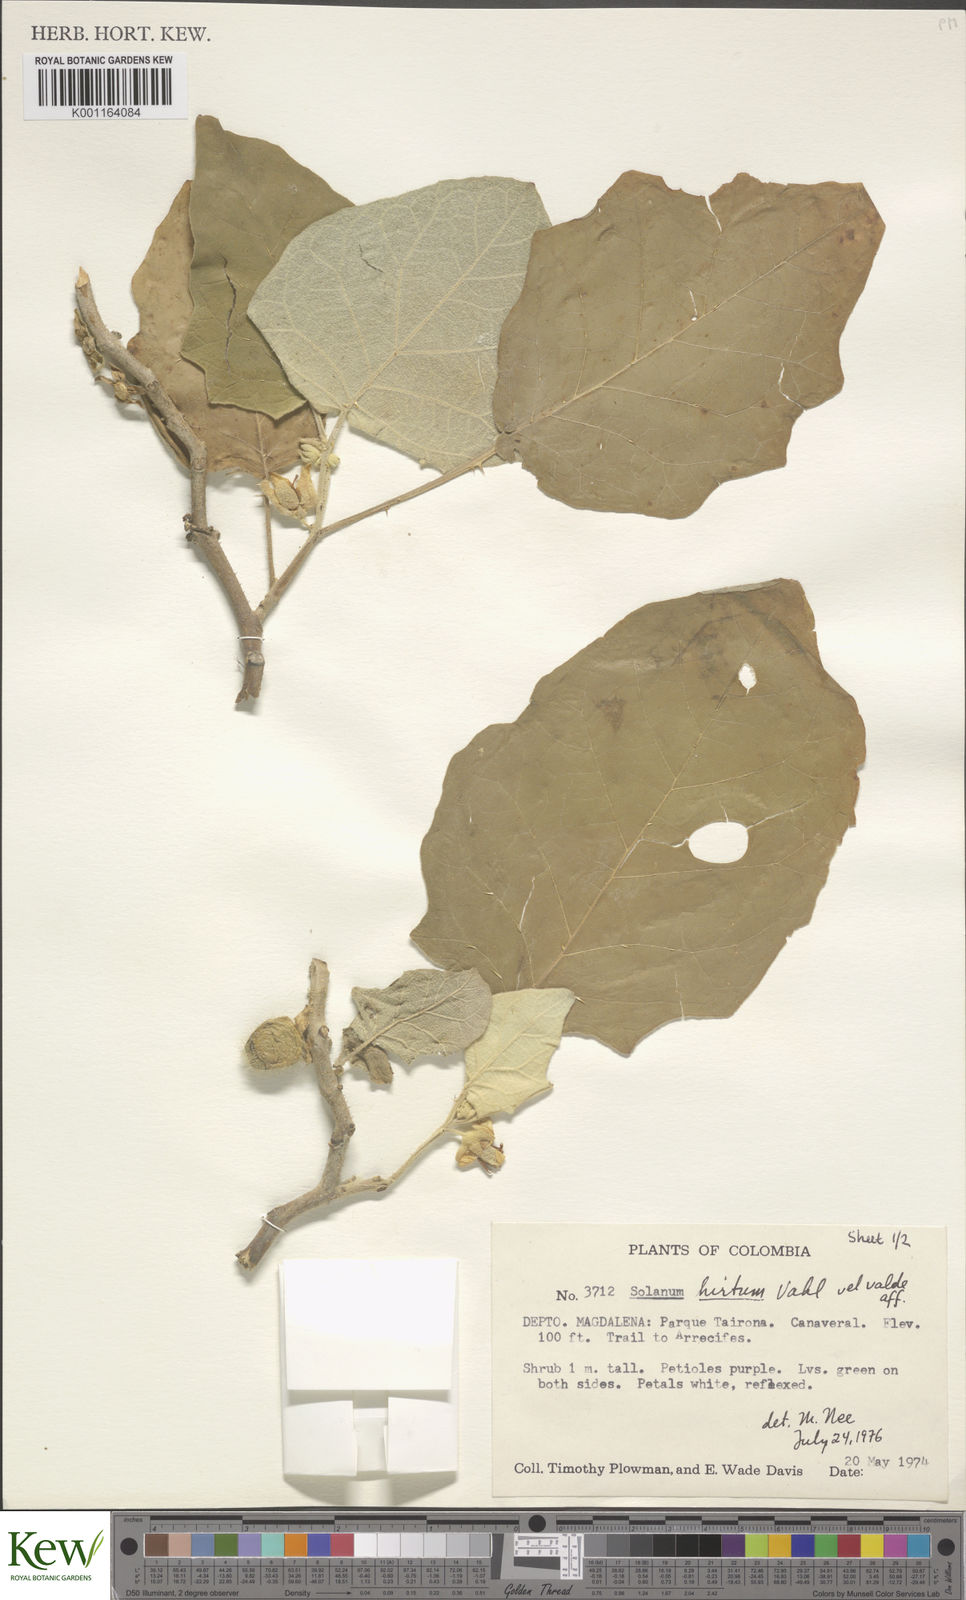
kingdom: Plantae
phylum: Tracheophyta
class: Magnoliopsida
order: Solanales
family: Solanaceae
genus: Solanum
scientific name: Solanum hirtum
